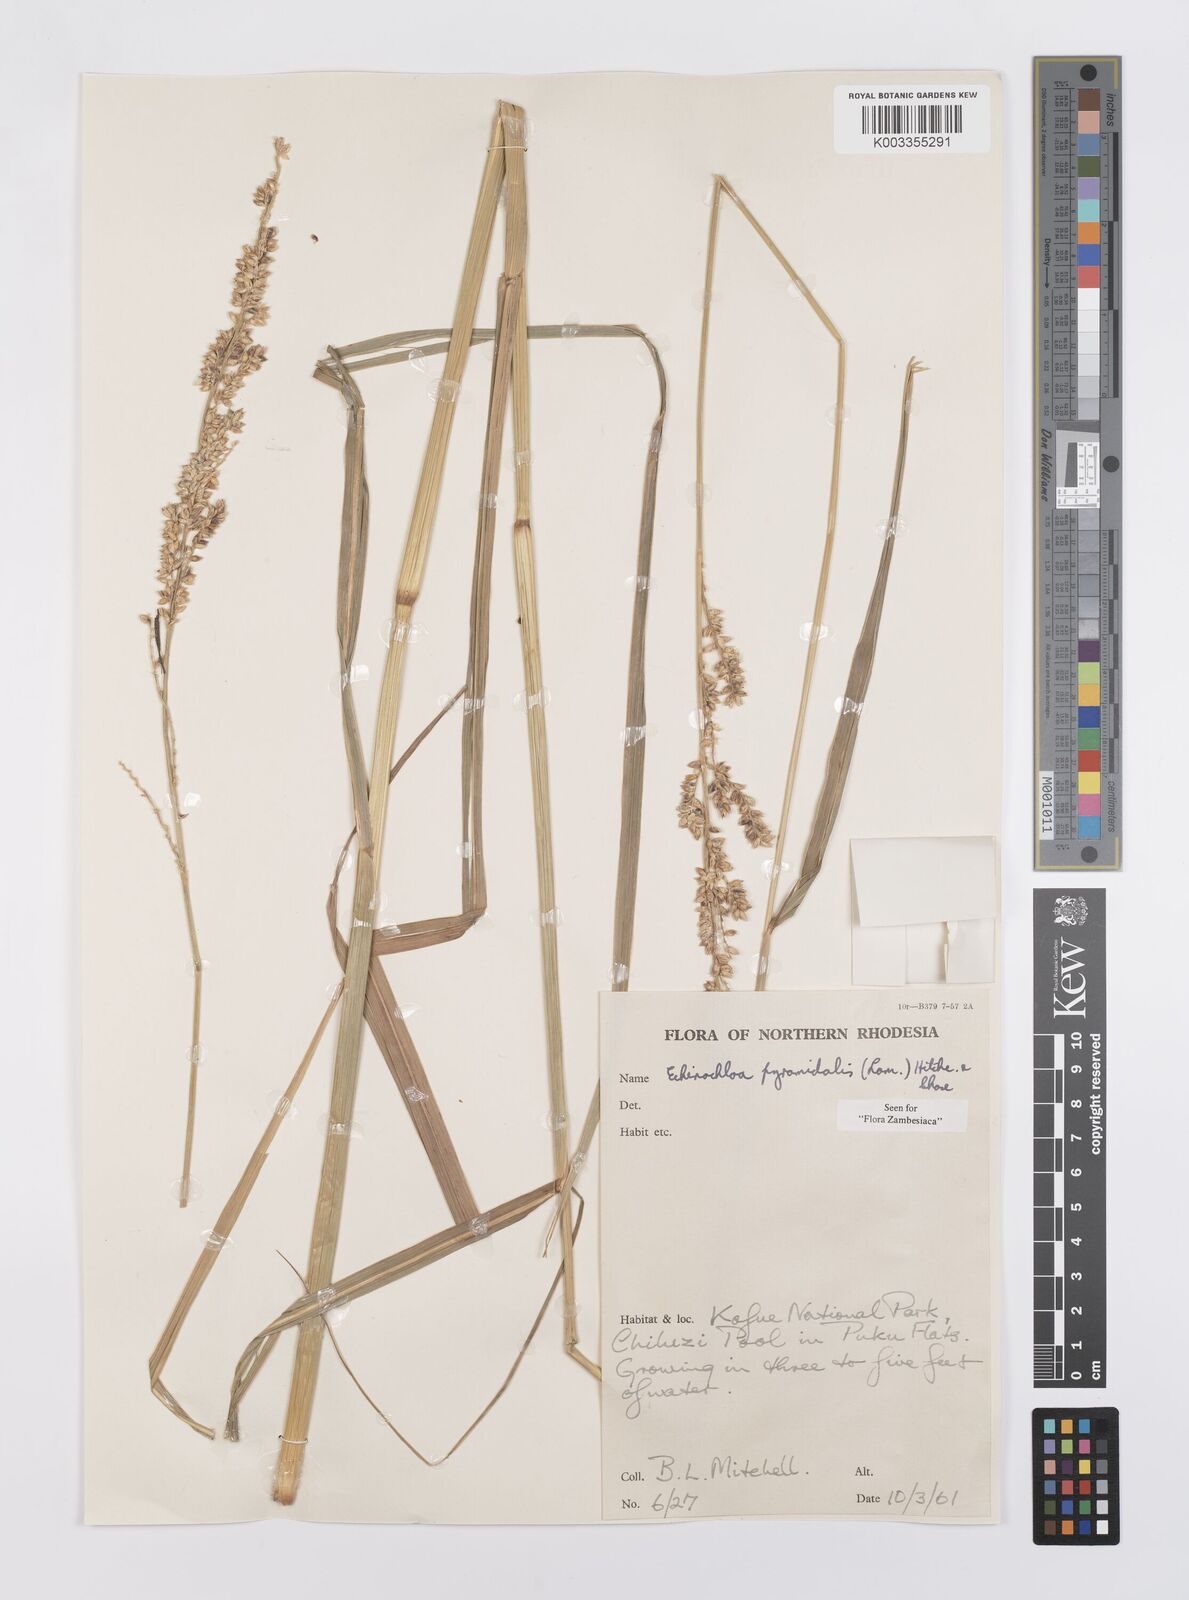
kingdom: Plantae
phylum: Tracheophyta
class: Liliopsida
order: Poales
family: Poaceae
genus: Echinochloa
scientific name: Echinochloa pyramidalis
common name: Antelope grass
